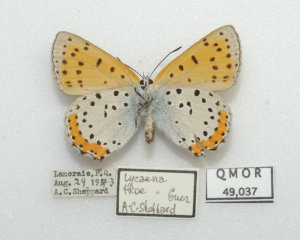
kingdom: Animalia
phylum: Arthropoda
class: Insecta
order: Lepidoptera
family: Sesiidae
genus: Sesia
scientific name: Sesia Lycaena hyllus
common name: Bronze Copper
